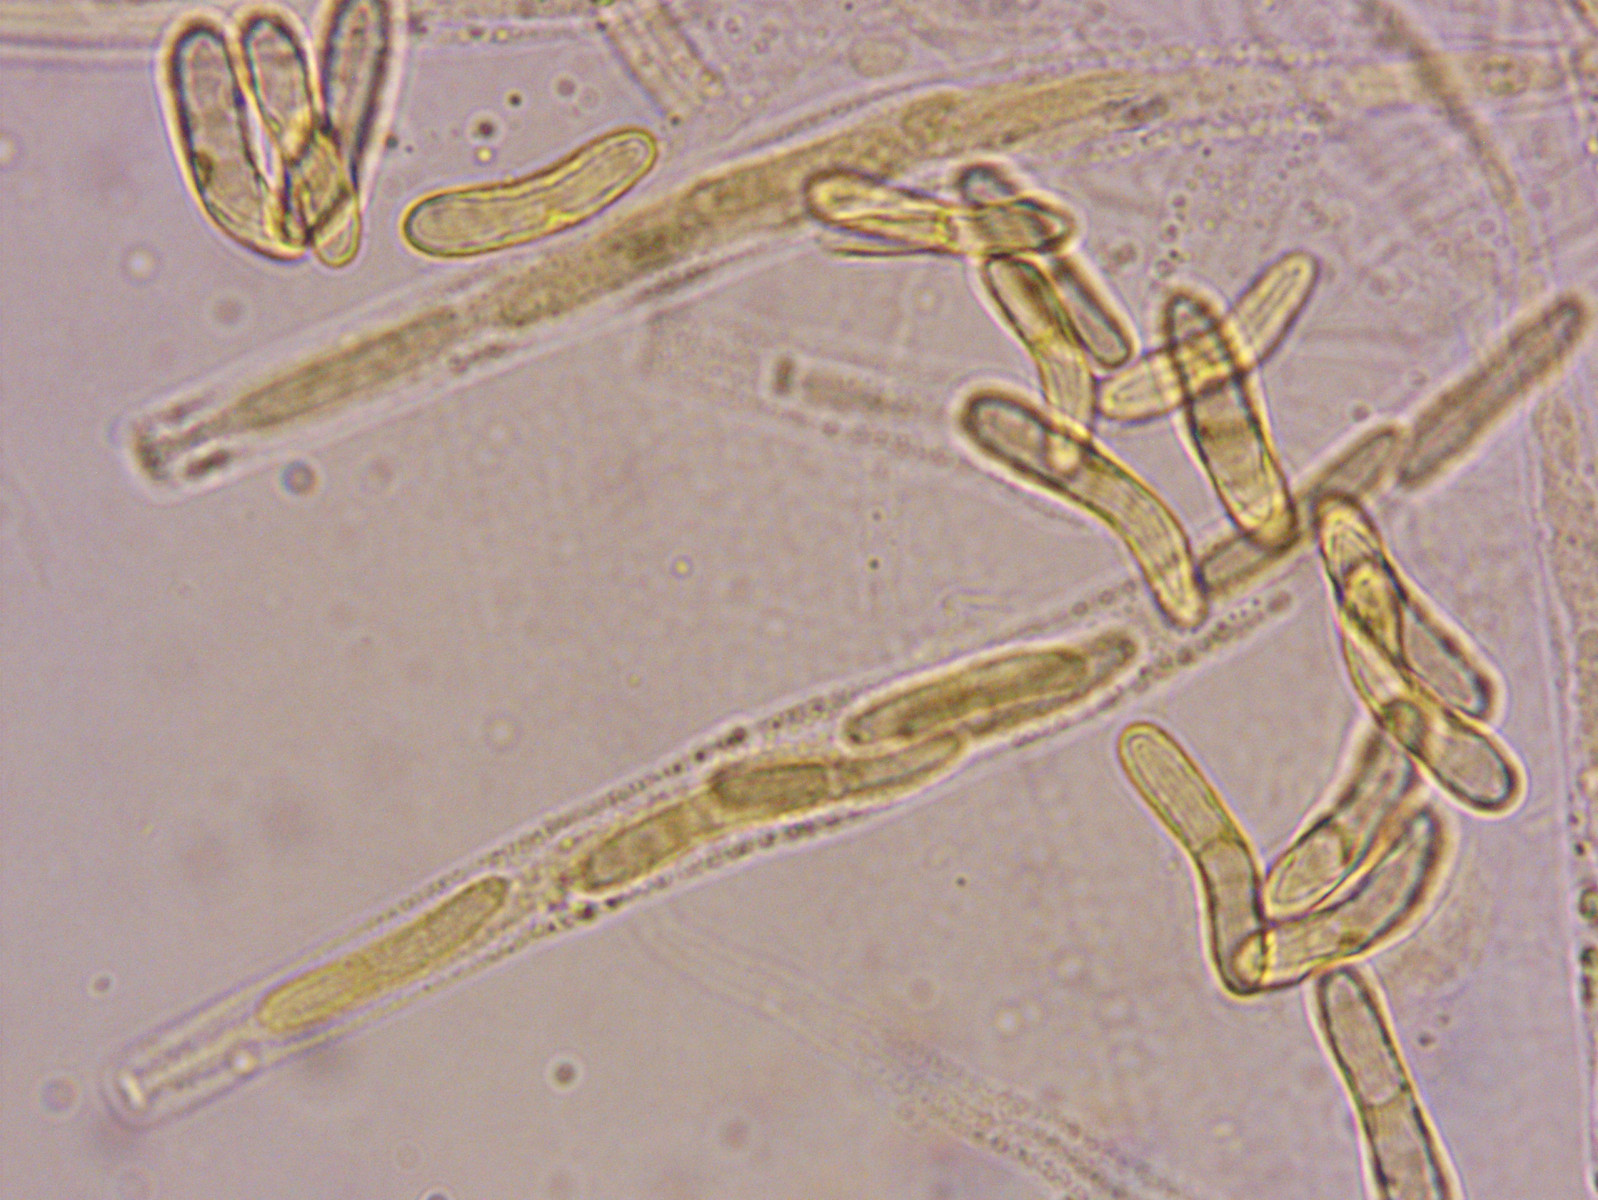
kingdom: Fungi
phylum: Ascomycota
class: Sordariomycetes
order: Sordariales
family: Helminthosphaeriaceae
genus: Ruzenia
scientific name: Ruzenia spermoides
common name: glat børstekerne
